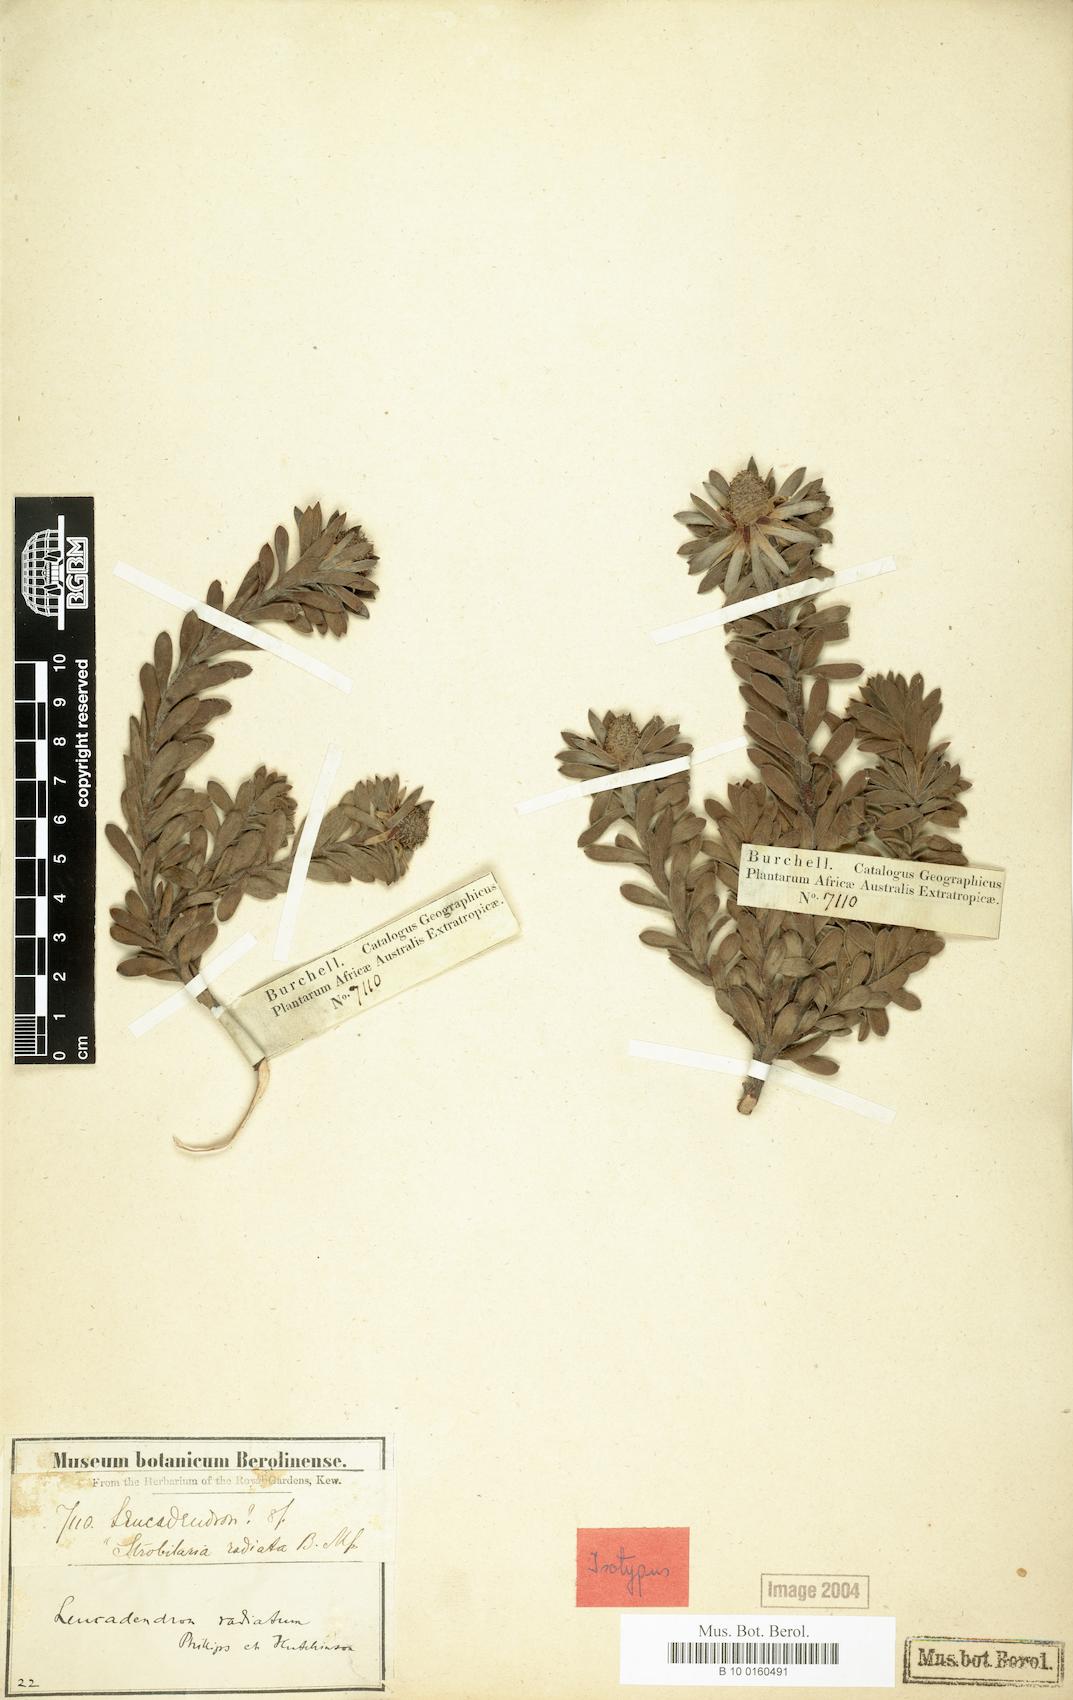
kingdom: Plantae
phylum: Tracheophyta
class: Magnoliopsida
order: Proteales
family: Proteaceae
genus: Leucadendron
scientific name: Leucadendron radiatum
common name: Langeberg conebush
